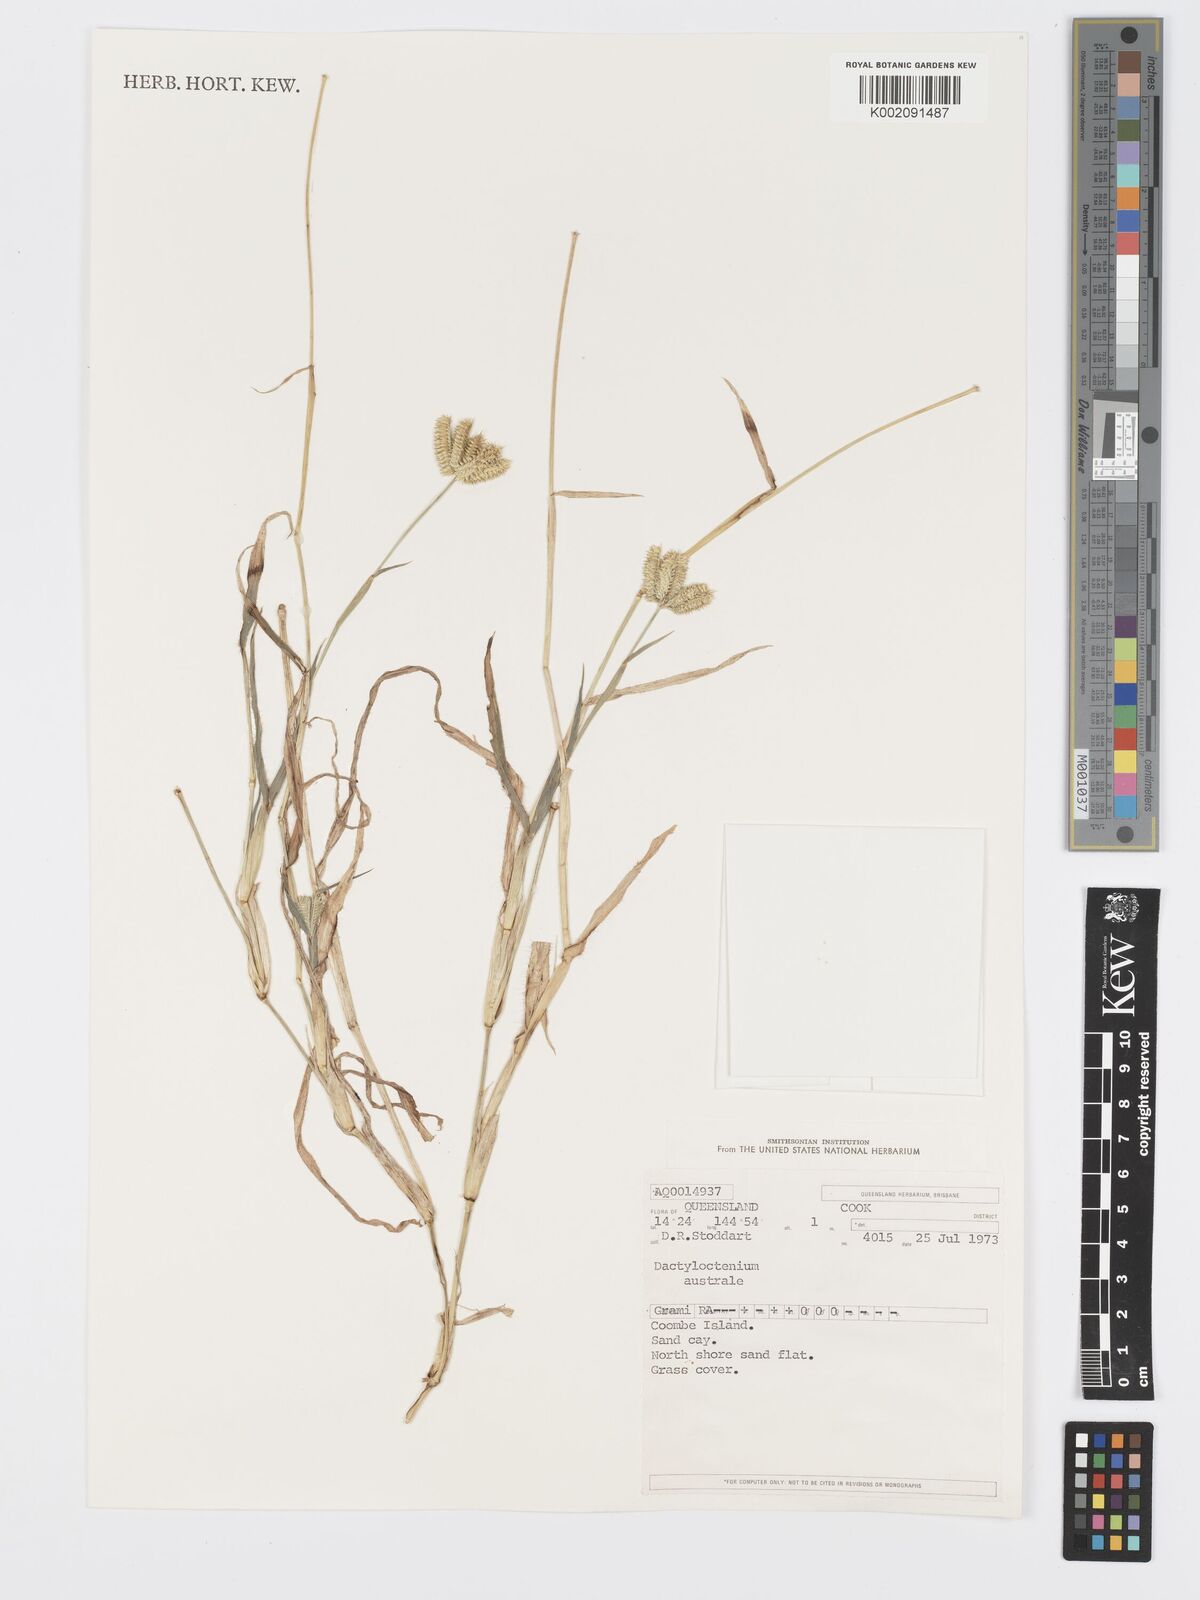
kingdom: Plantae
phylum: Tracheophyta
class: Liliopsida
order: Poales
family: Poaceae
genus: Dactyloctenium
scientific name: Dactyloctenium aegyptium
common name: Egyptian grass
